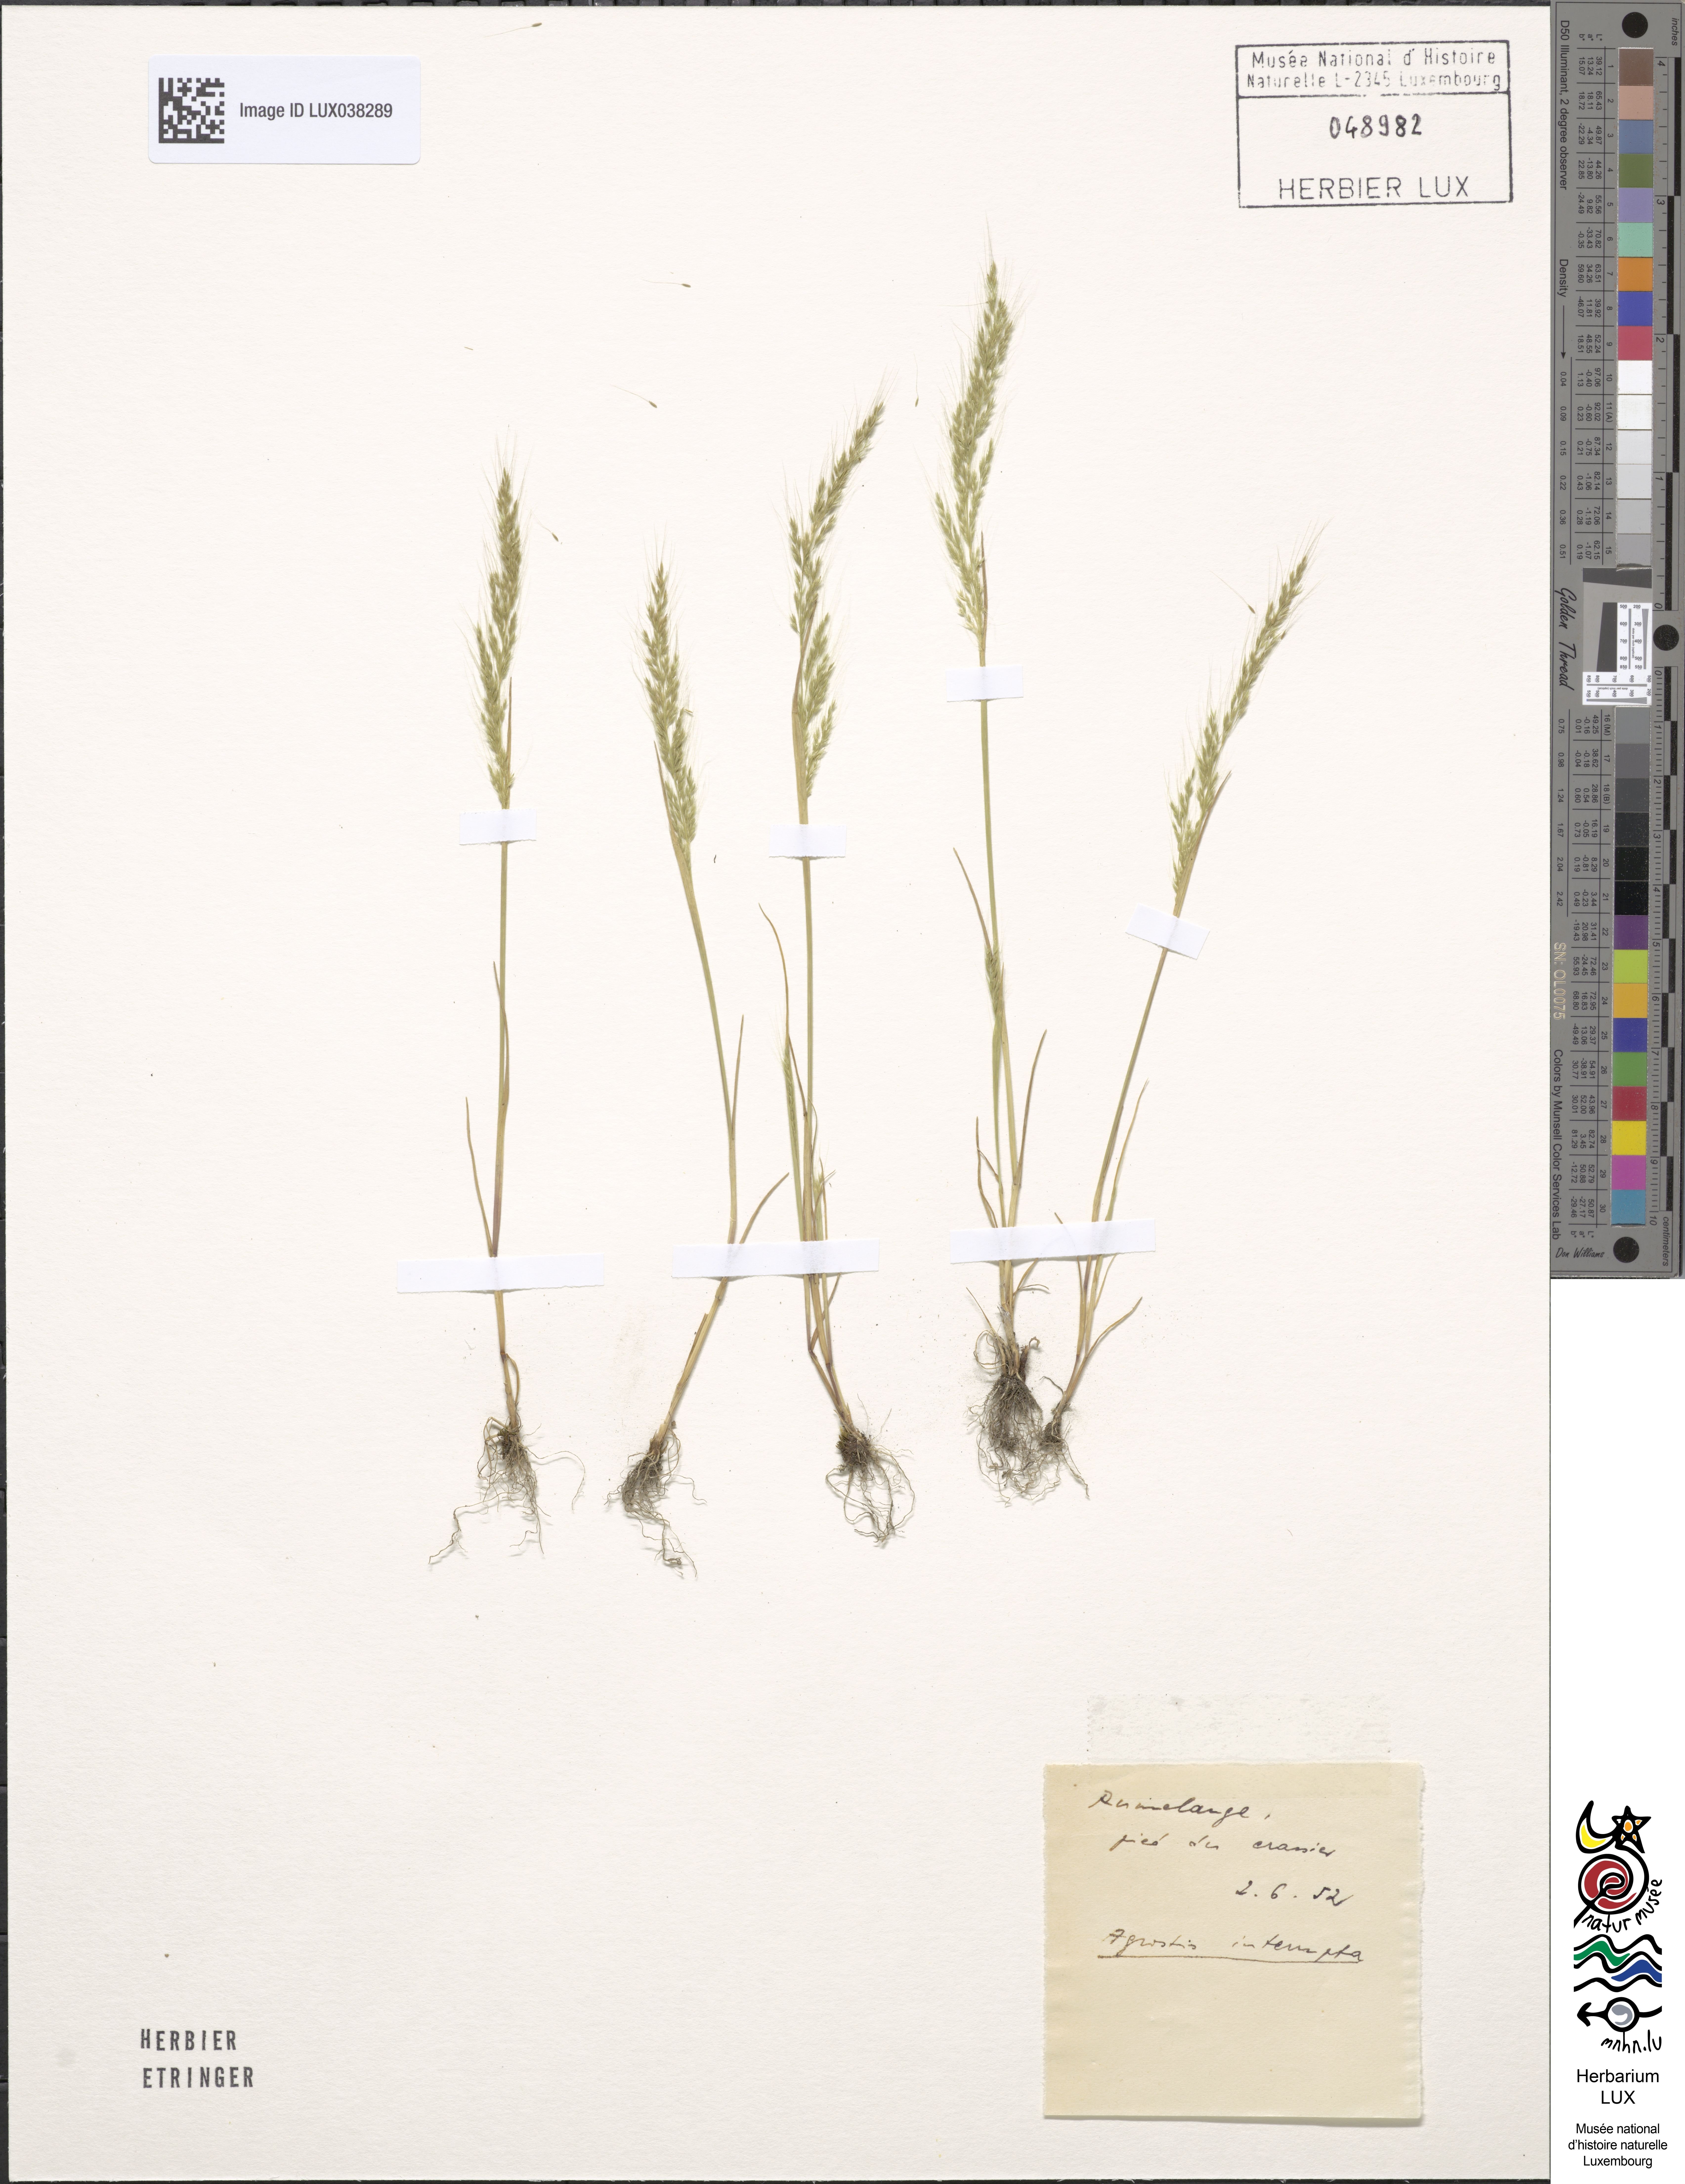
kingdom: Plantae
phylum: Tracheophyta
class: Liliopsida
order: Poales
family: Poaceae
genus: Apera
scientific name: Apera interrupta
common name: Dense silky-bent
